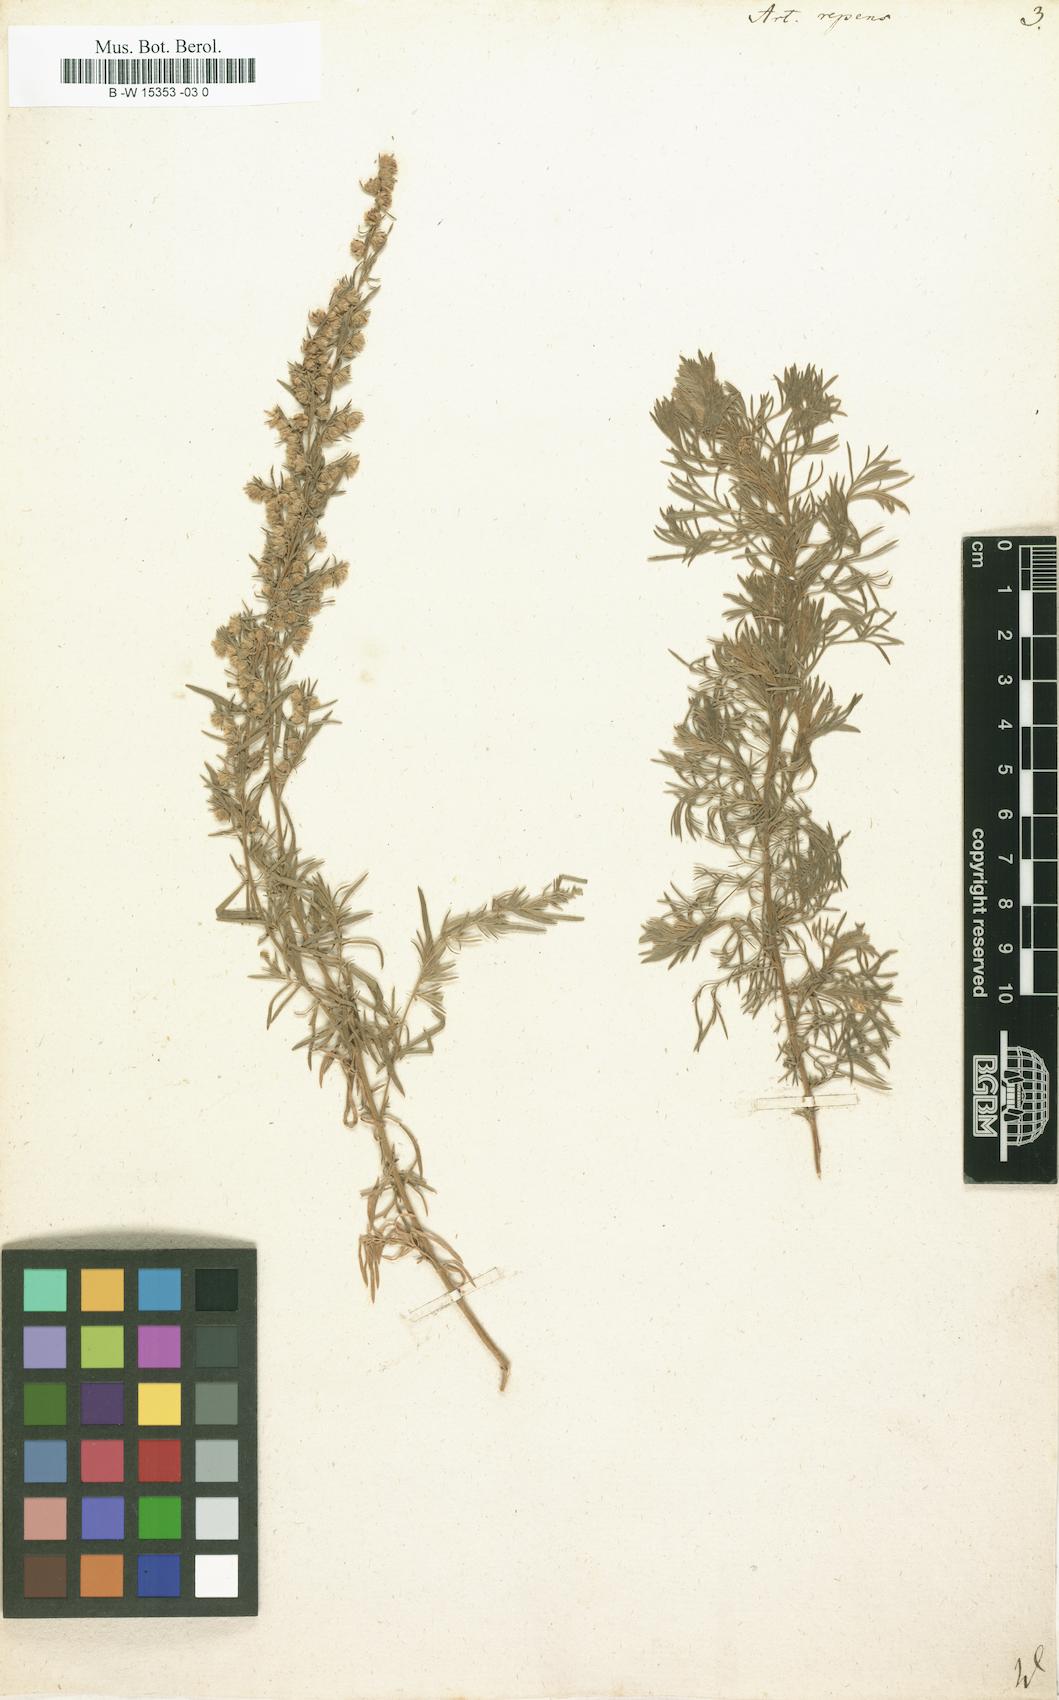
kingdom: Plantae
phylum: Tracheophyta
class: Magnoliopsida
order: Asterales
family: Asteraceae
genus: Artemisia
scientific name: Artemisia repens
